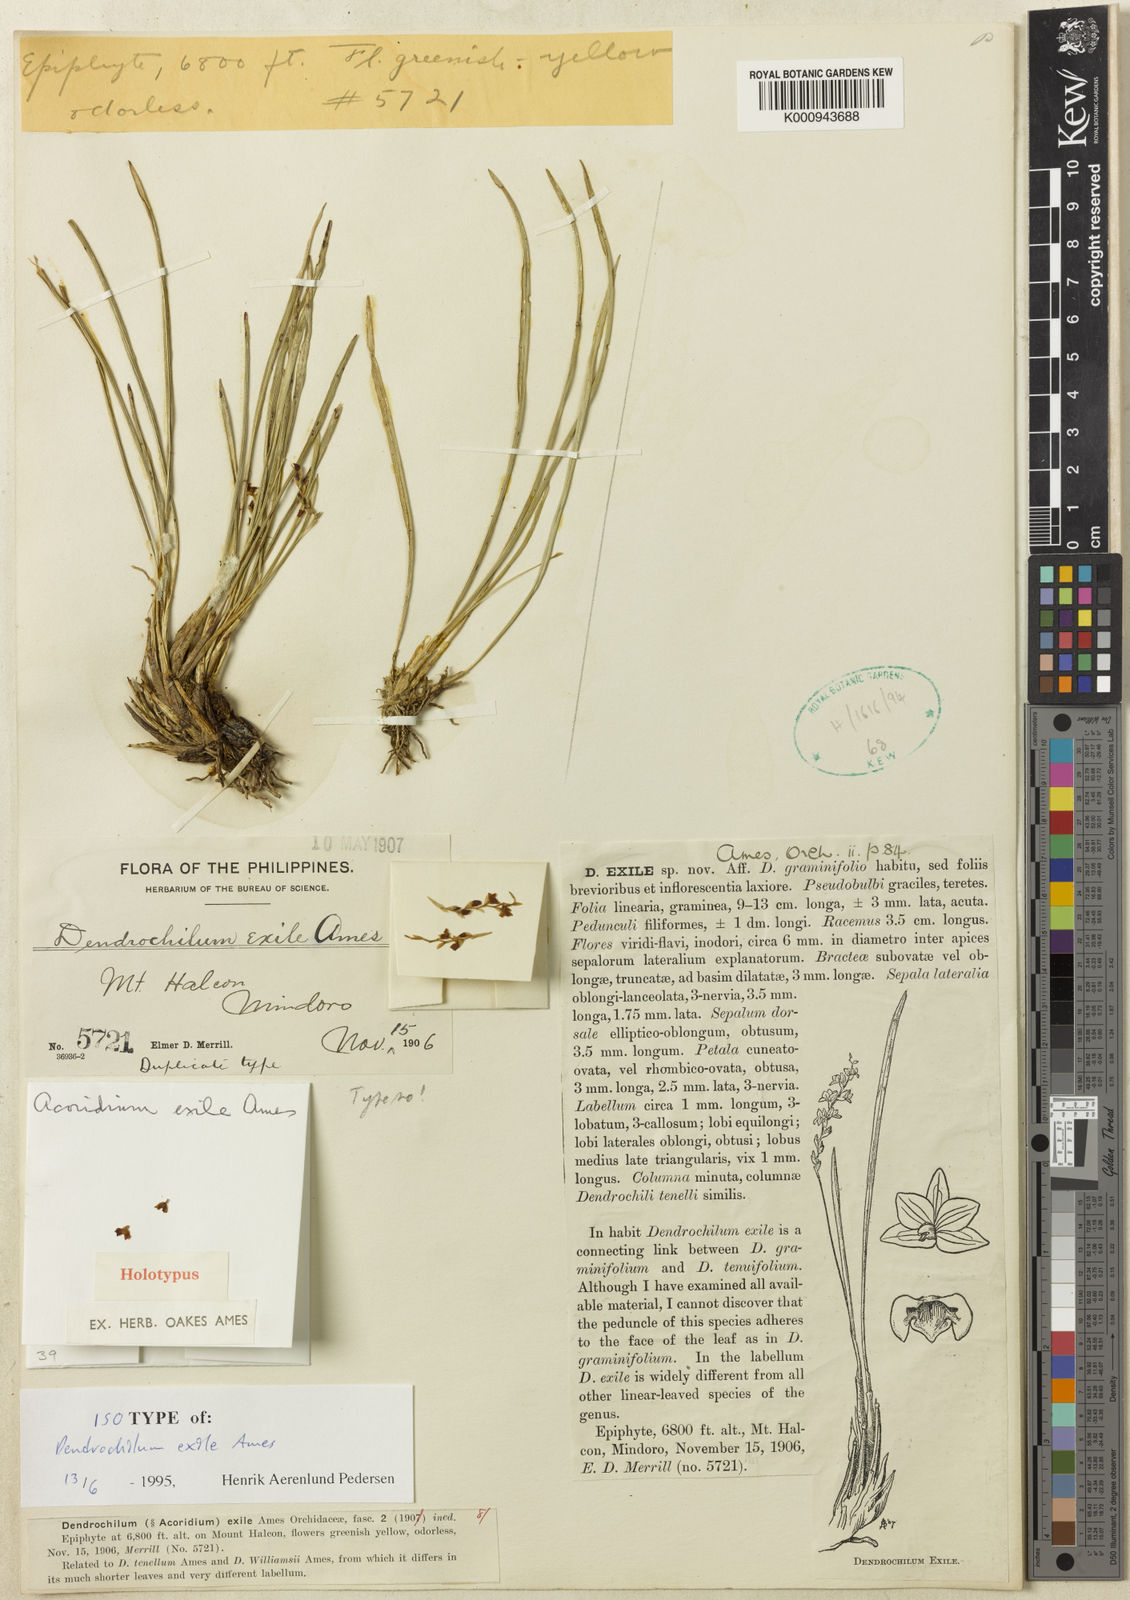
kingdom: Plantae
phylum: Tracheophyta
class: Liliopsida
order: Asparagales
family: Orchidaceae
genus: Coelogyne
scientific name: Coelogyne exilis
